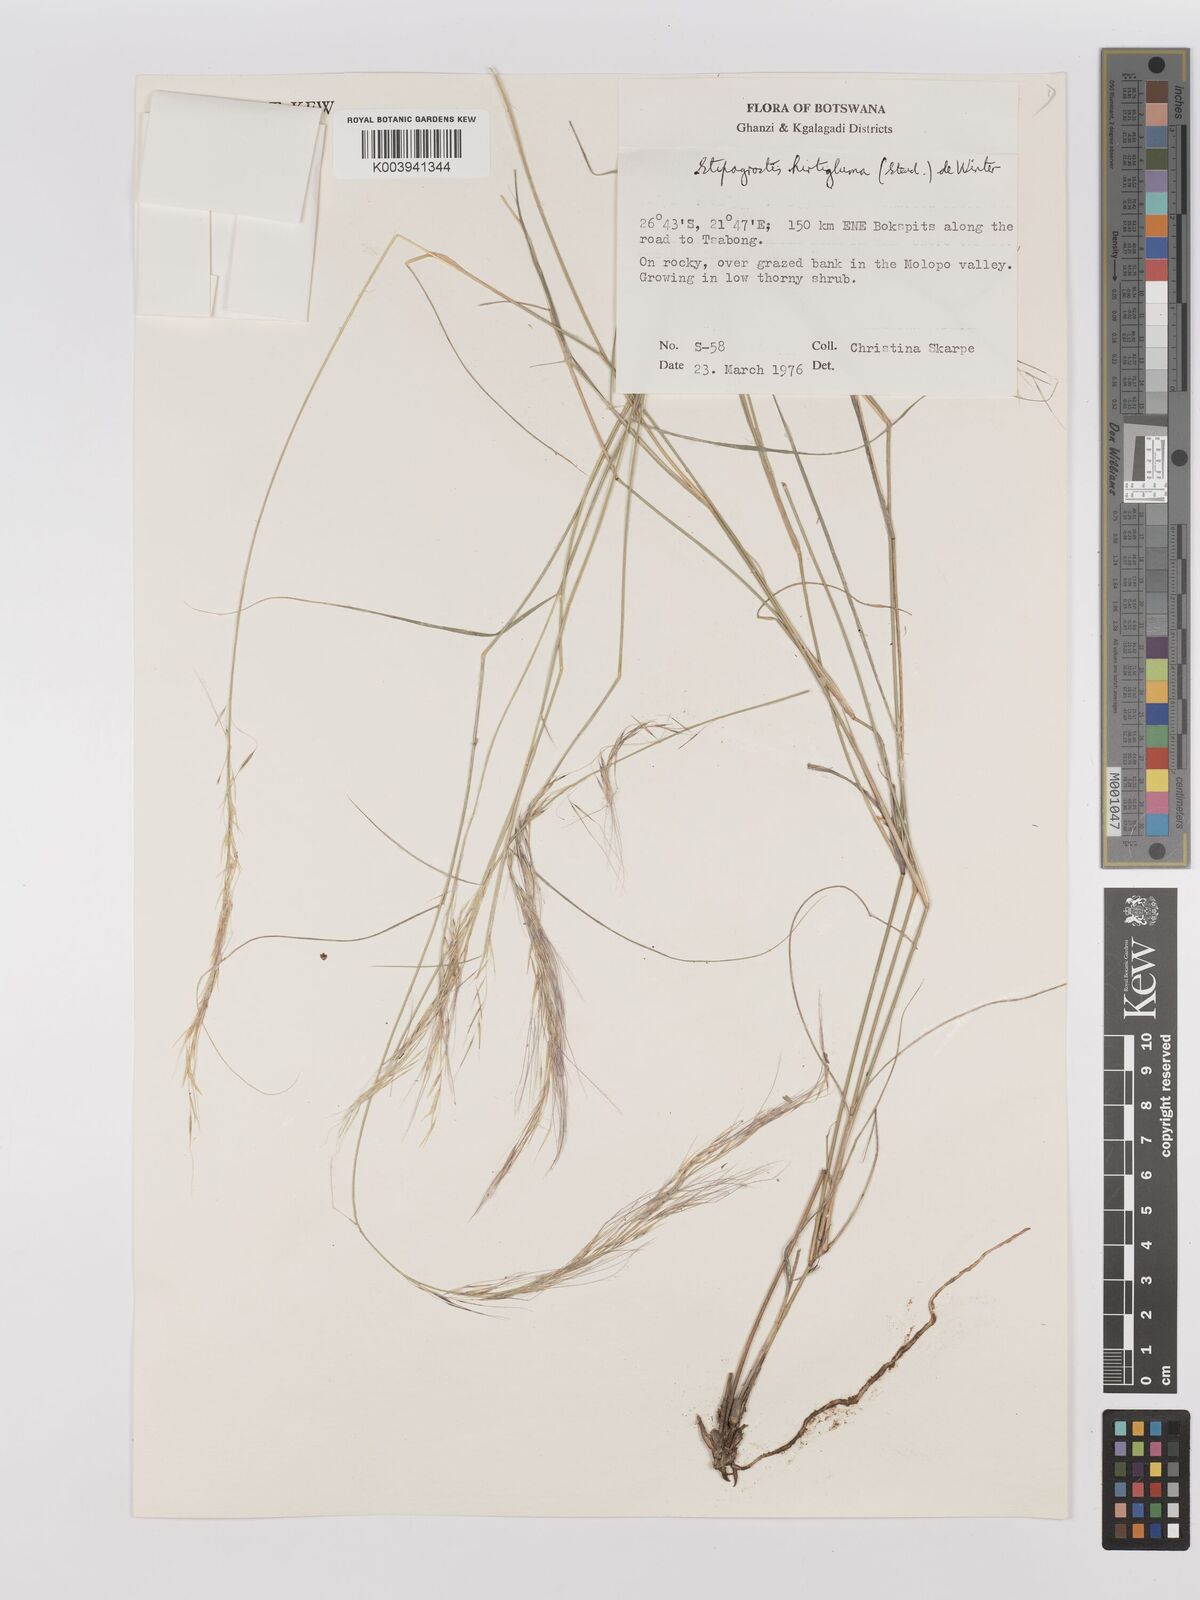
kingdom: Plantae
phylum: Tracheophyta
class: Liliopsida
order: Poales
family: Poaceae
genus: Stipagrostis
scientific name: Stipagrostis hirtigluma
